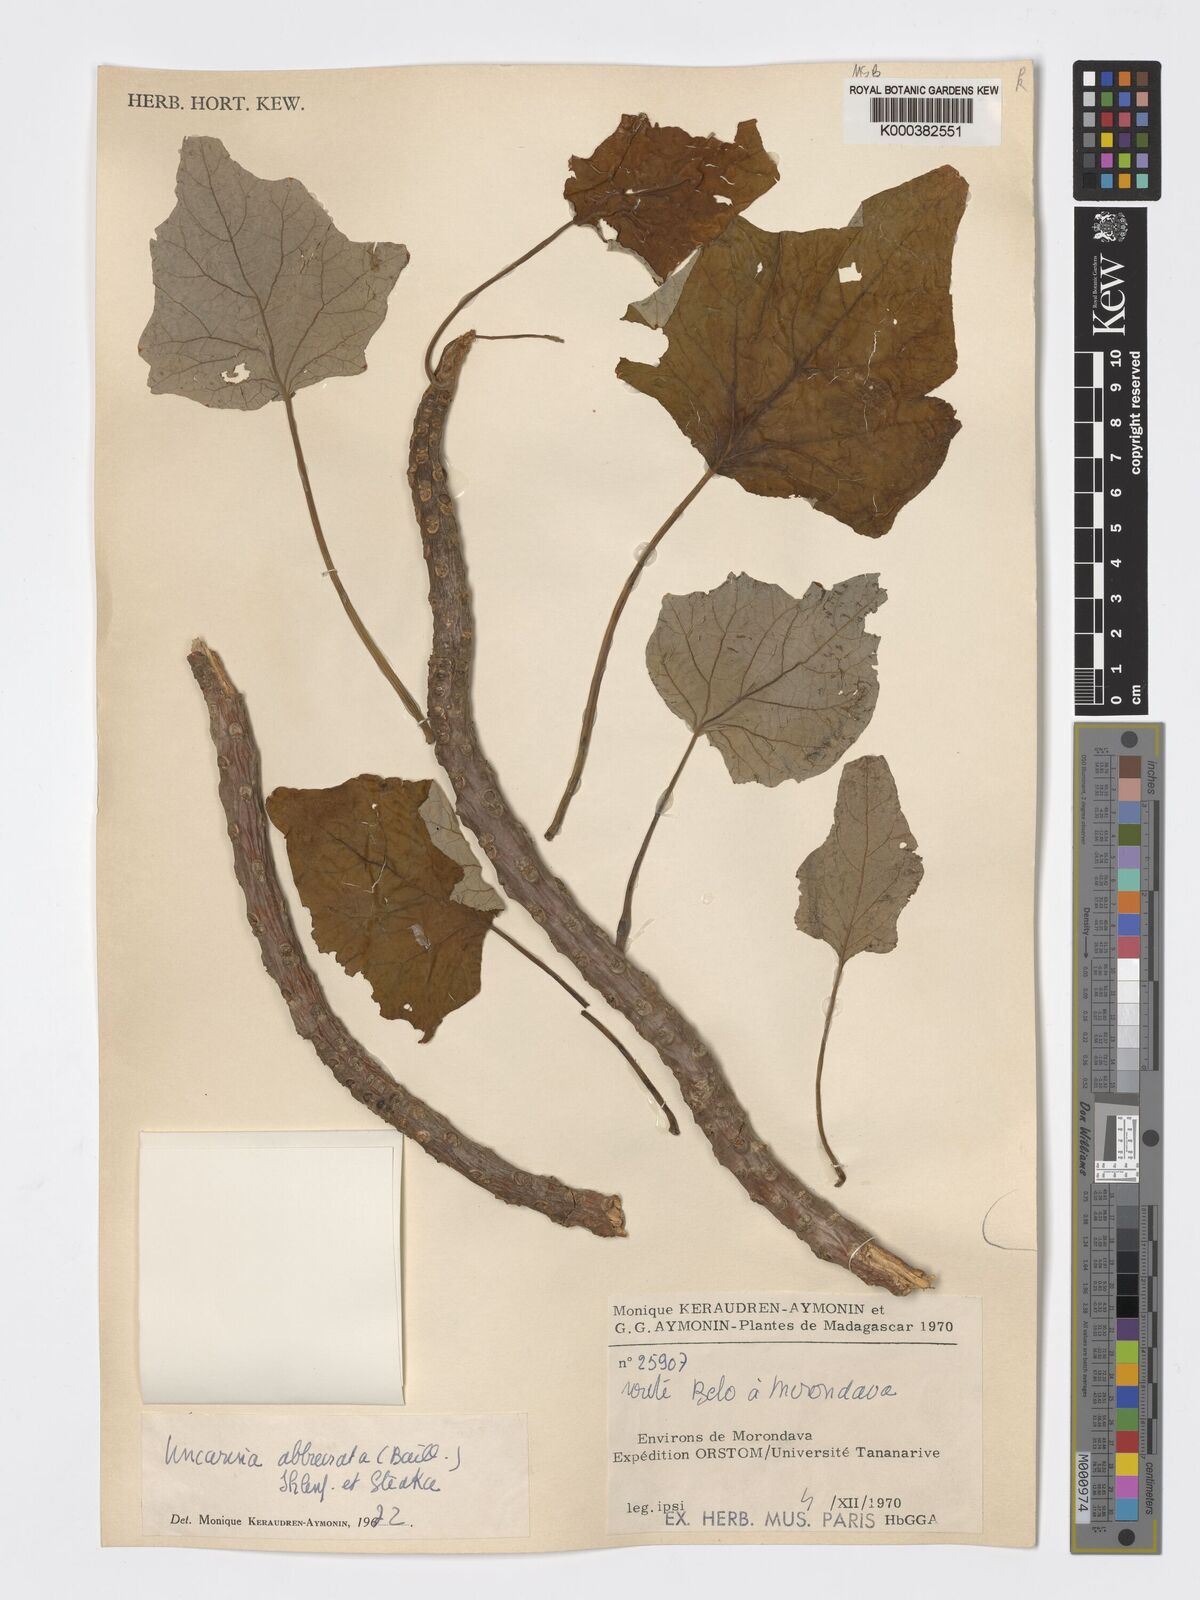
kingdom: Plantae
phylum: Tracheophyta
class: Magnoliopsida
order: Lamiales
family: Pedaliaceae
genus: Uncarina
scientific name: Uncarina abbreviata
